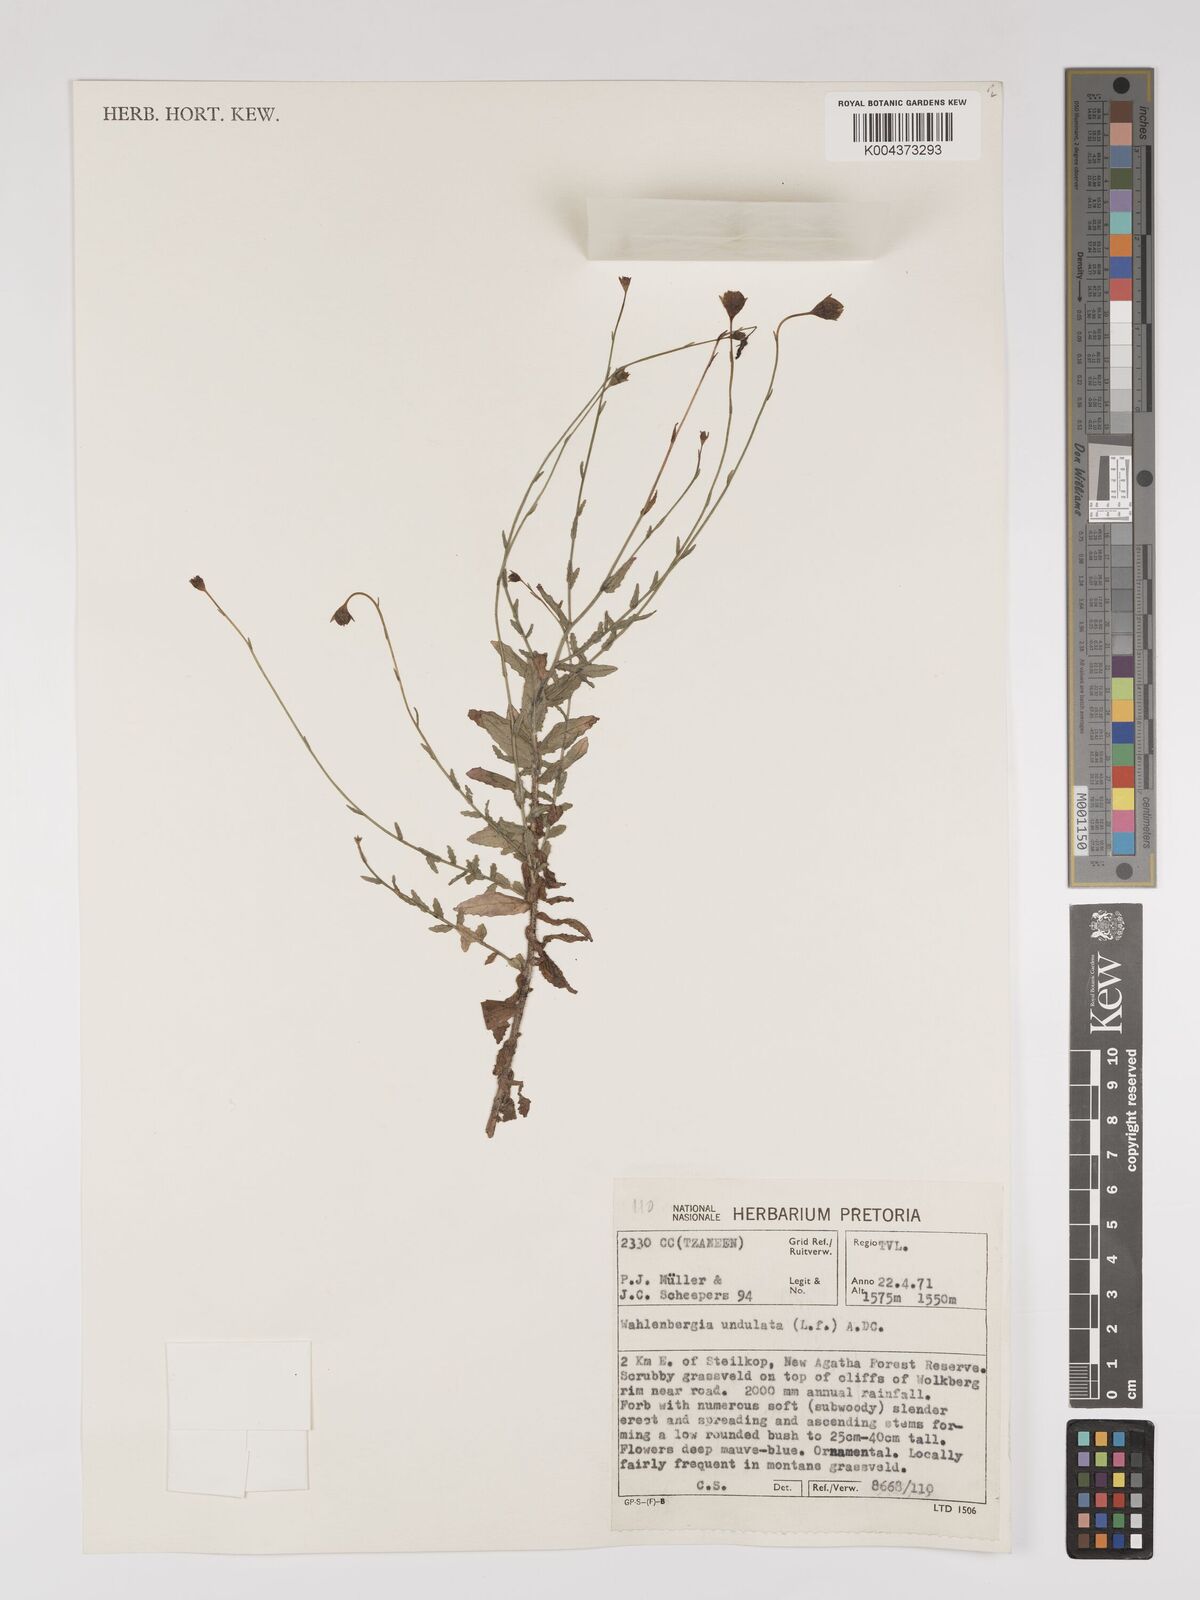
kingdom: Plantae
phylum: Tracheophyta
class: Magnoliopsida
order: Asterales
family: Campanulaceae
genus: Wahlenbergia
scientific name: Wahlenbergia undulata
